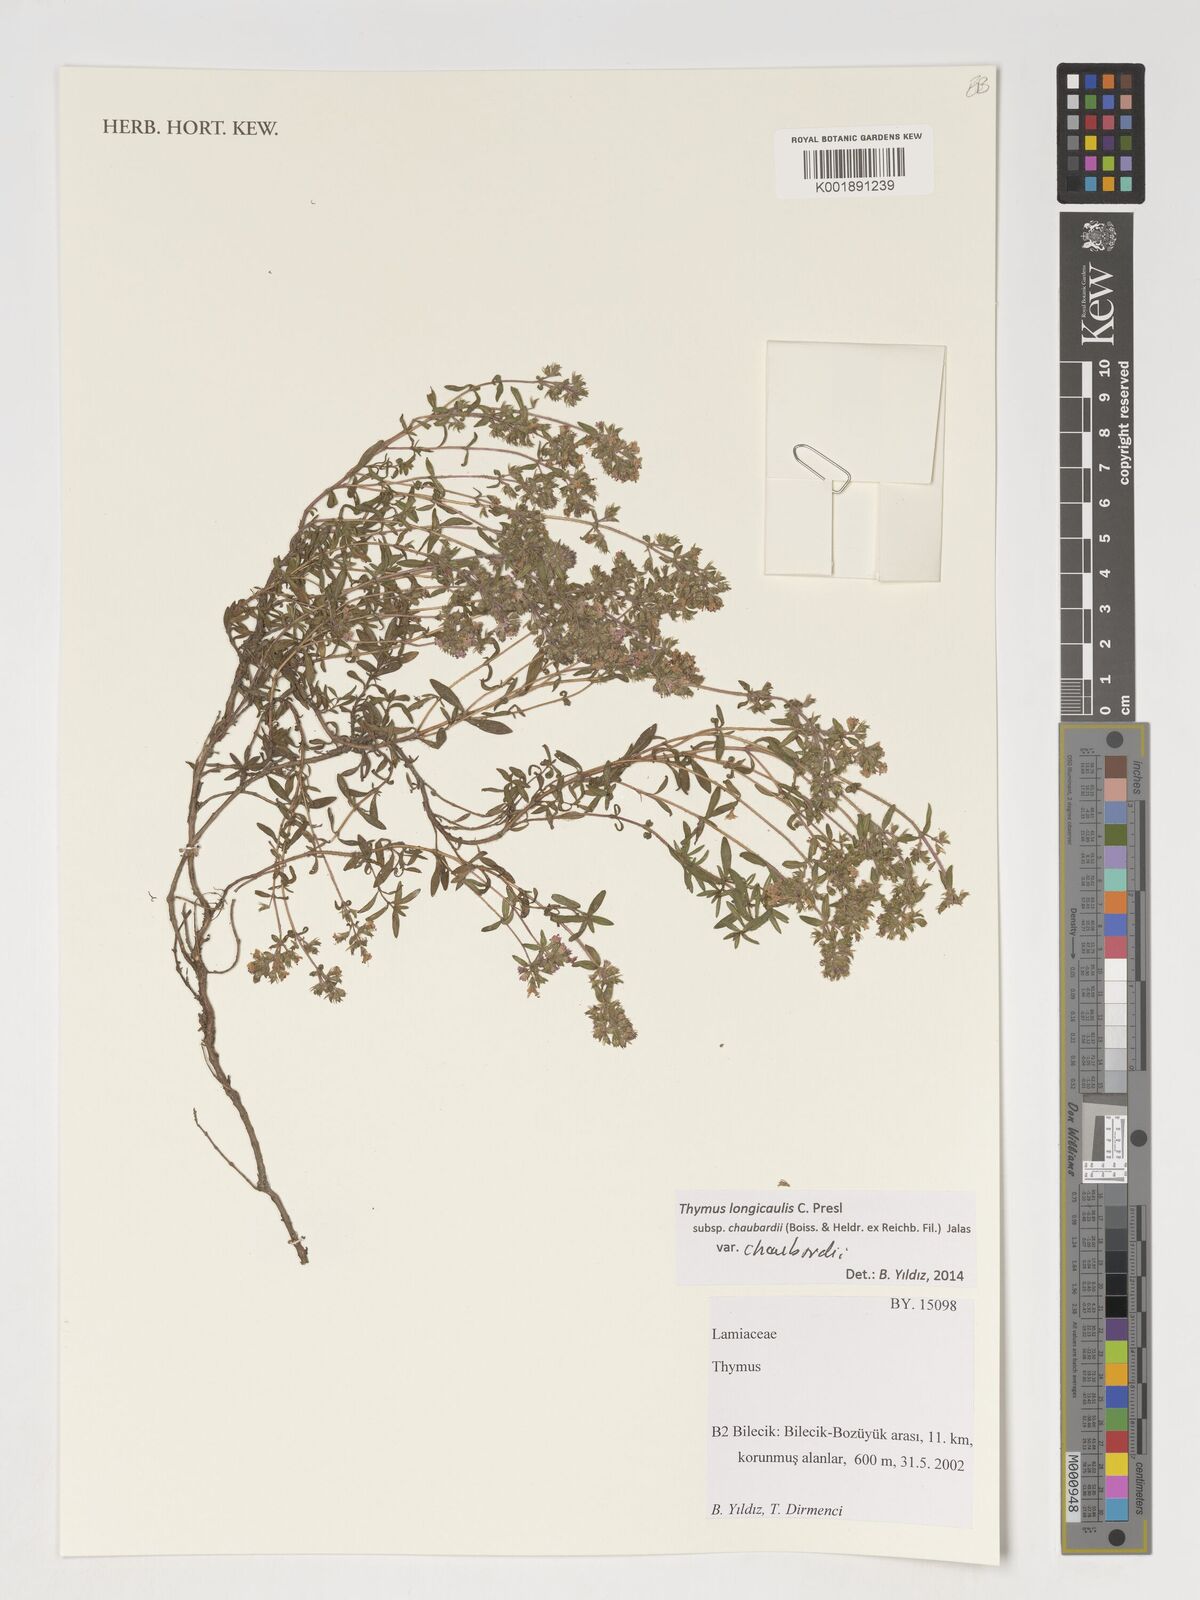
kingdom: Plantae
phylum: Tracheophyta
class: Magnoliopsida
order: Lamiales
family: Lamiaceae
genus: Thymus
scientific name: Thymus
